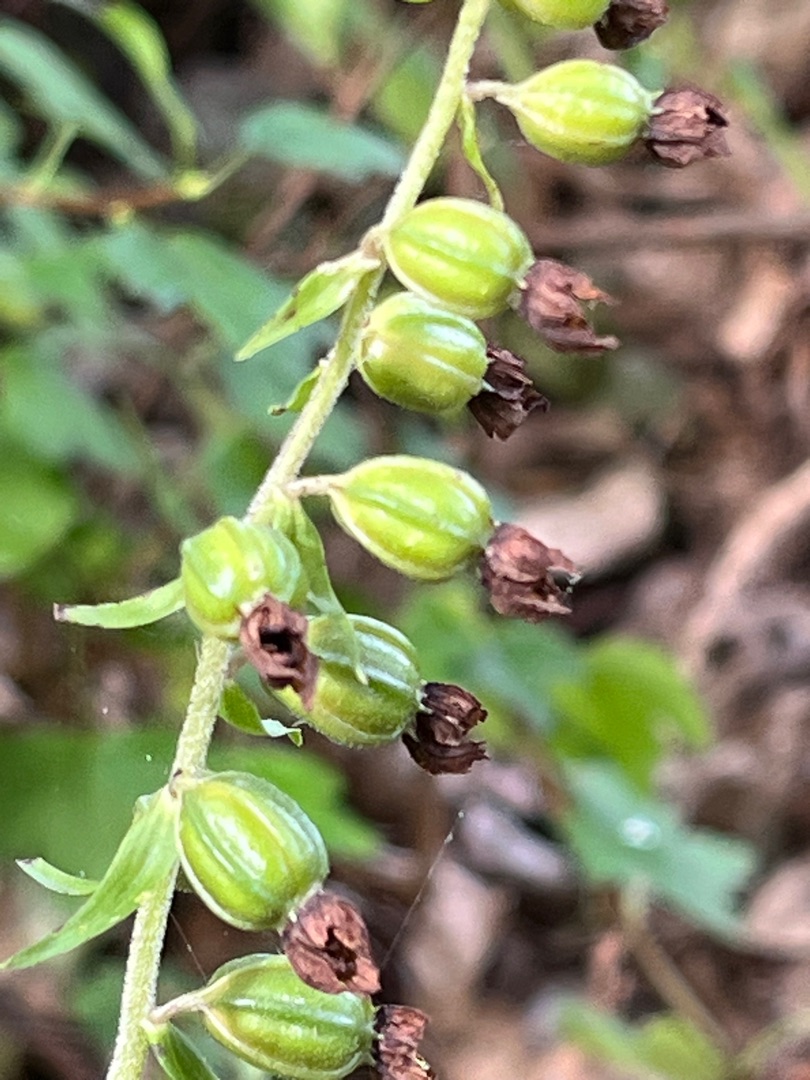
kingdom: Plantae
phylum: Tracheophyta
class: Liliopsida
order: Asparagales
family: Orchidaceae
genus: Epipactis
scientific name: Epipactis helleborine
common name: Skov-hullæbe
